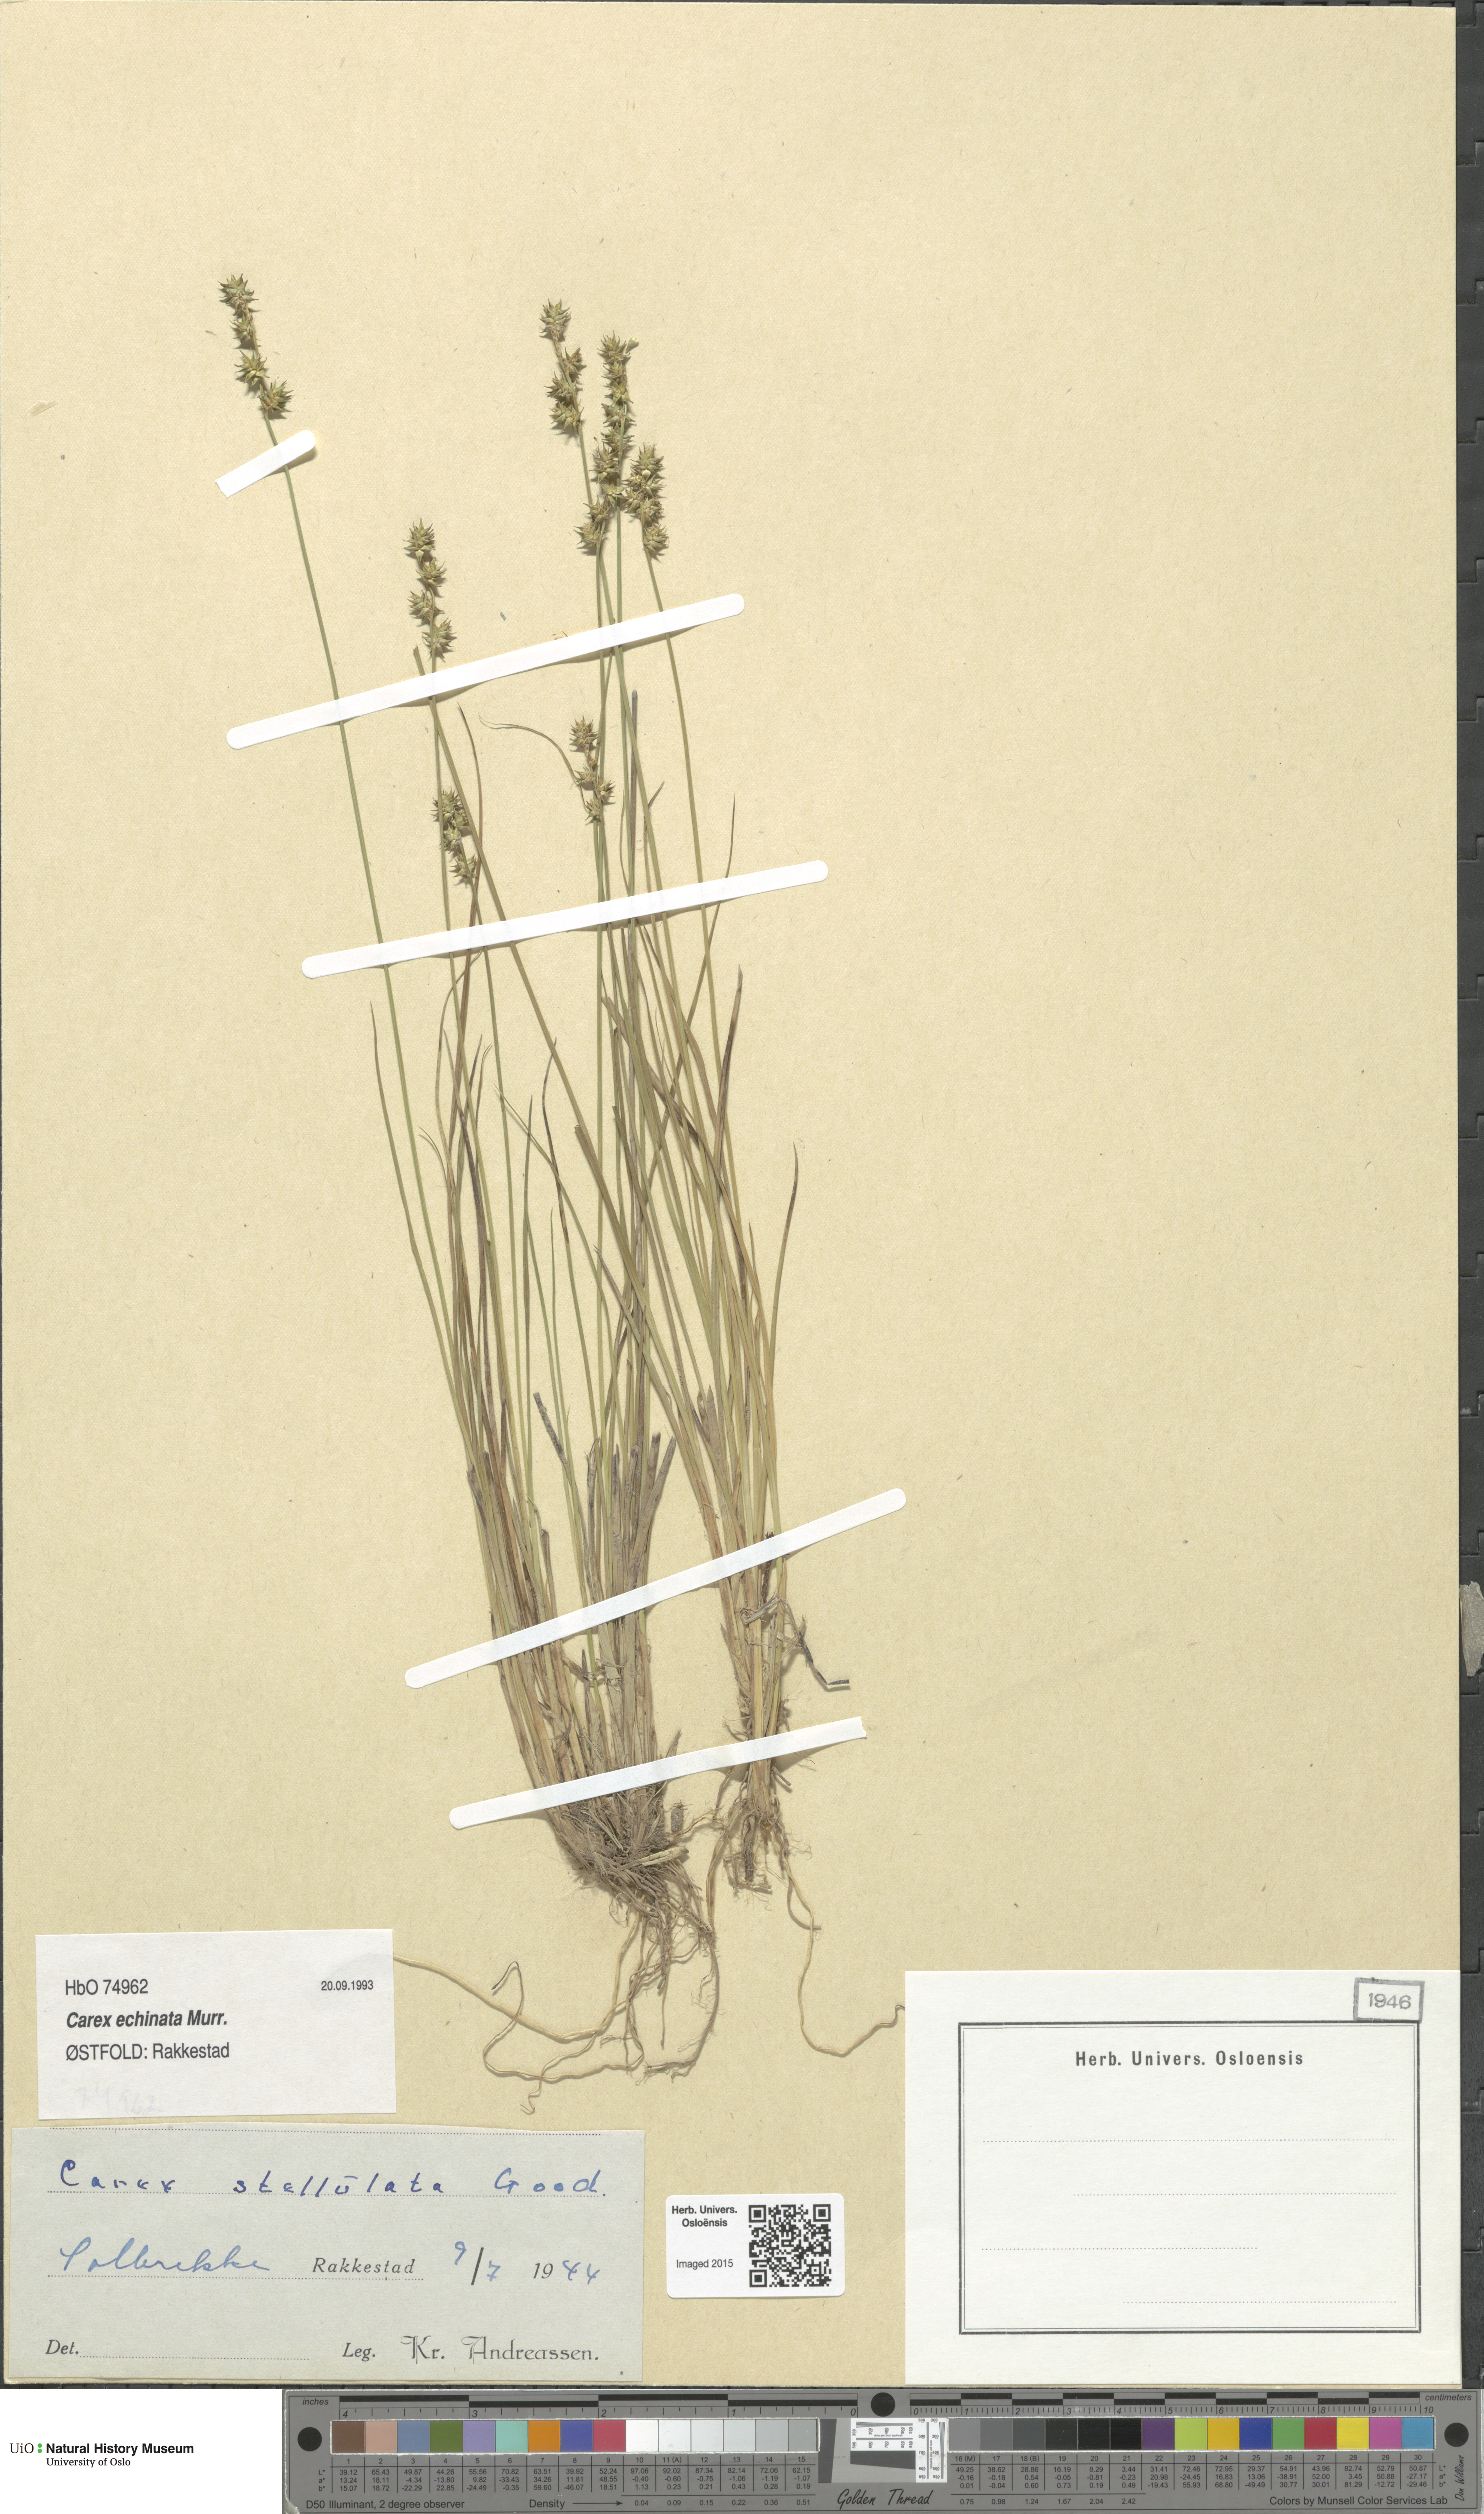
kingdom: Plantae
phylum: Tracheophyta
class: Liliopsida
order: Poales
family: Cyperaceae
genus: Carex
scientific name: Carex echinata
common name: Star sedge
